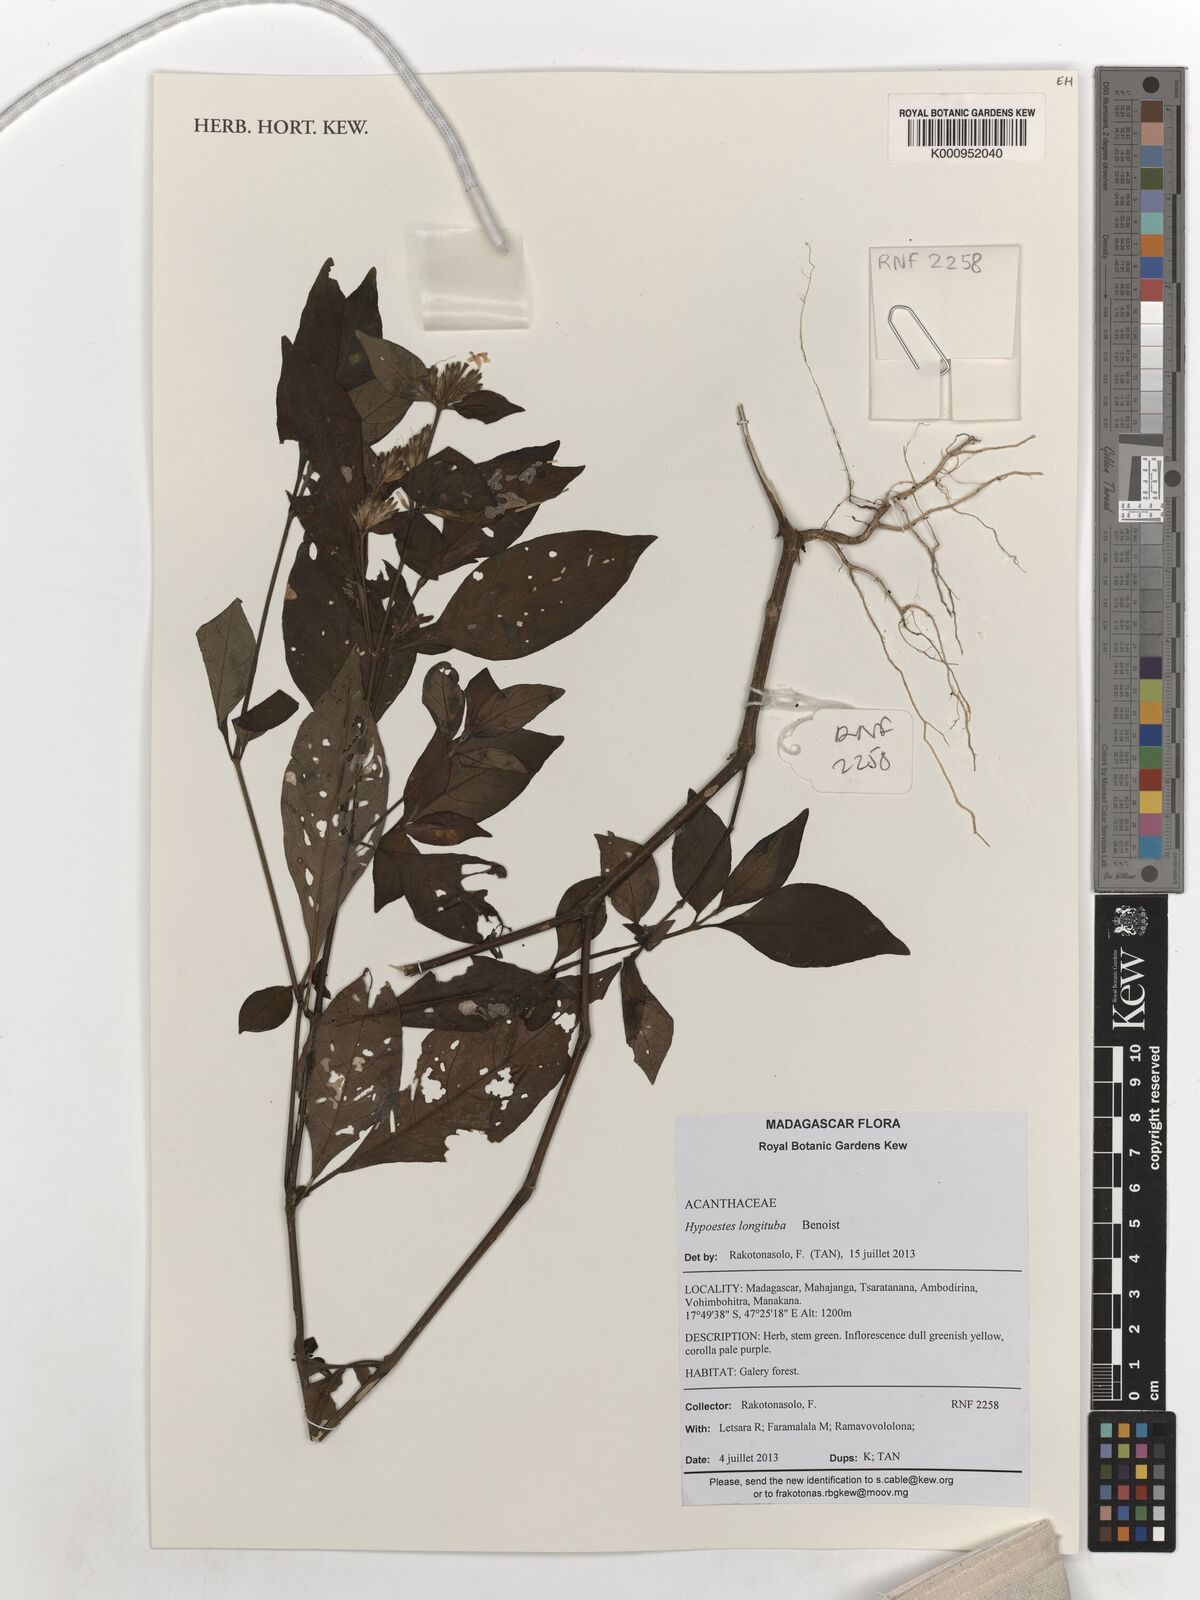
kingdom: Plantae
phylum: Tracheophyta
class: Magnoliopsida
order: Lamiales
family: Acanthaceae
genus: Hypoestes
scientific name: Hypoestes longituba
